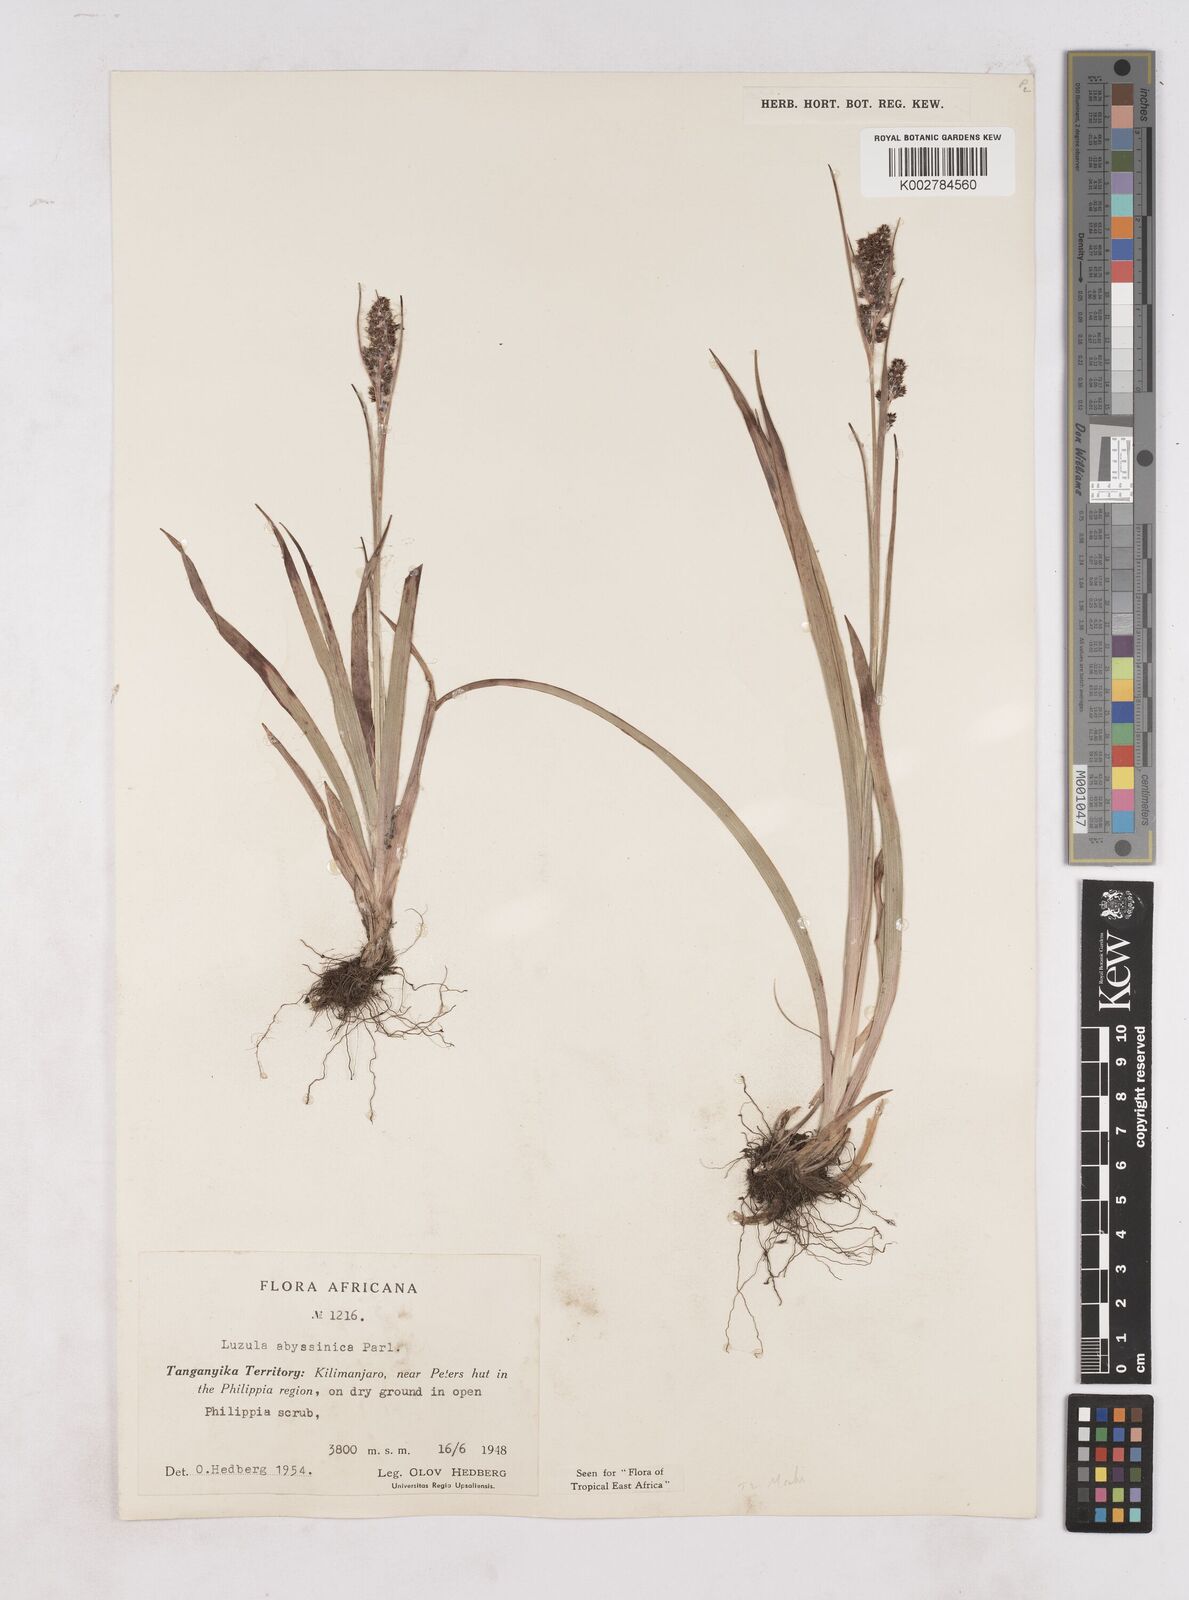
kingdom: Plantae
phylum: Tracheophyta
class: Liliopsida
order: Poales
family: Juncaceae
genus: Luzula
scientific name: Luzula abyssinica
